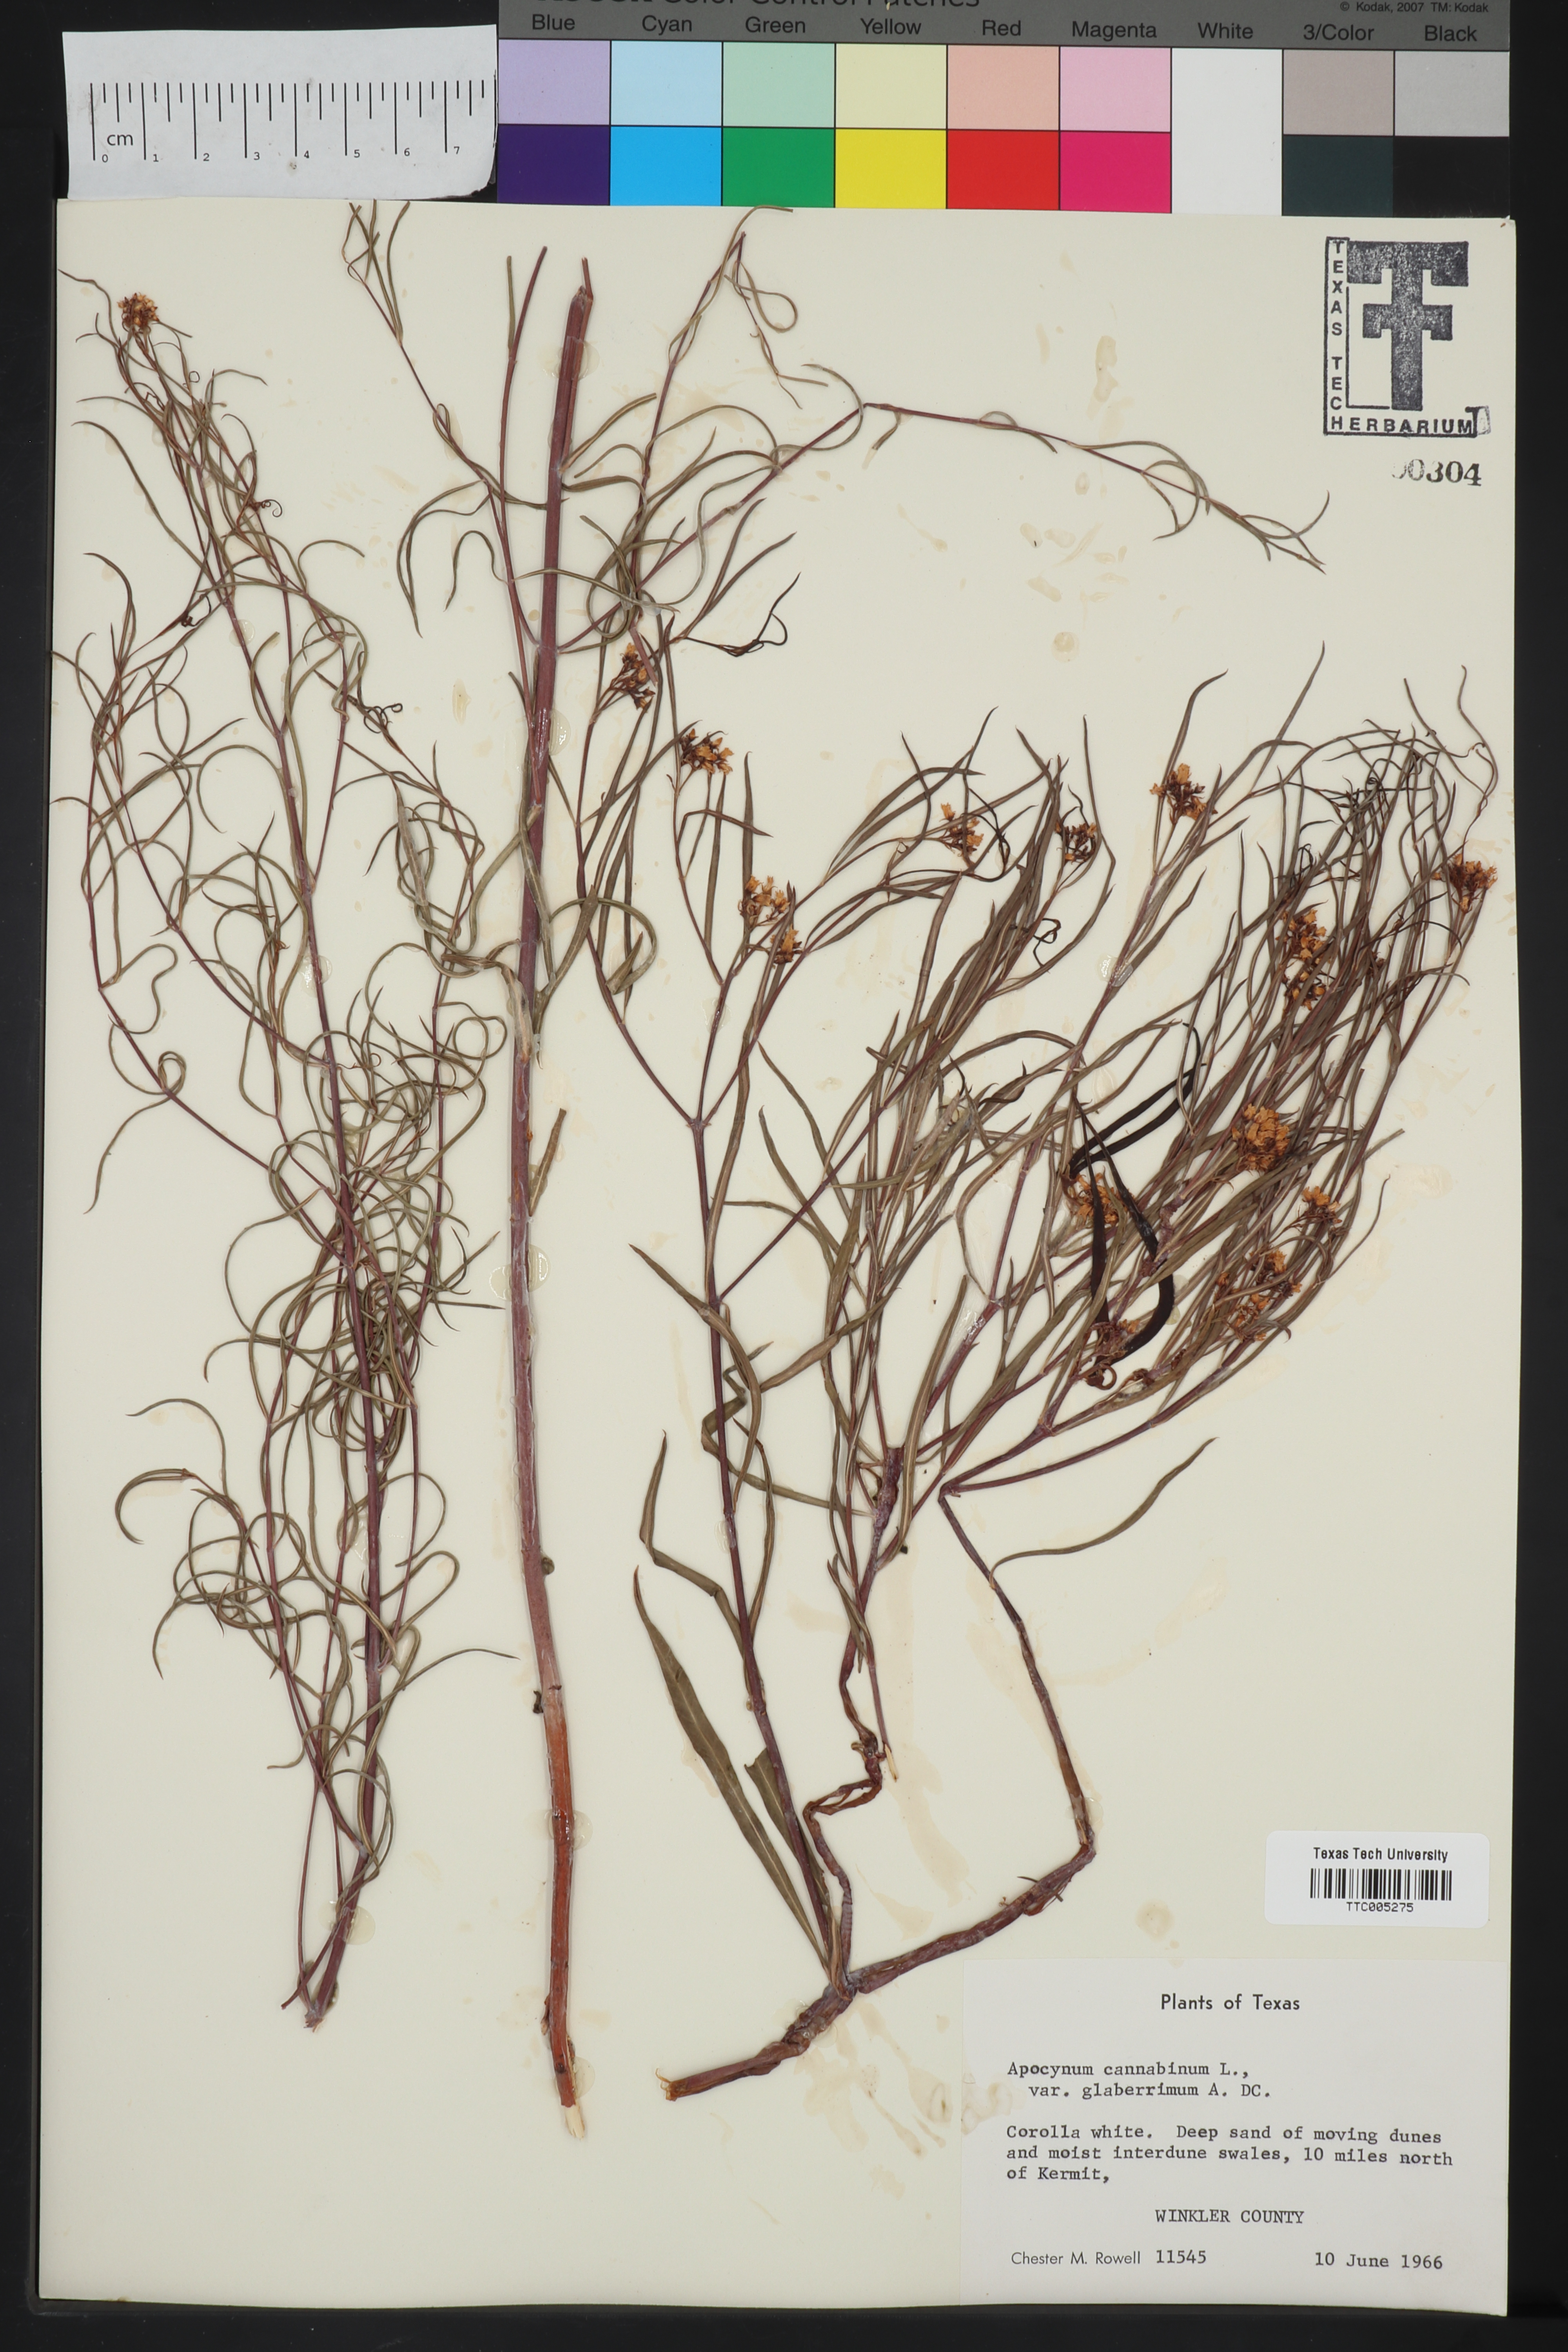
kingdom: Plantae
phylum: Tracheophyta
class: Magnoliopsida
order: Gentianales
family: Apocynaceae
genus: Apocynum
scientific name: Apocynum cannabinum
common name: Hemp dogbane
